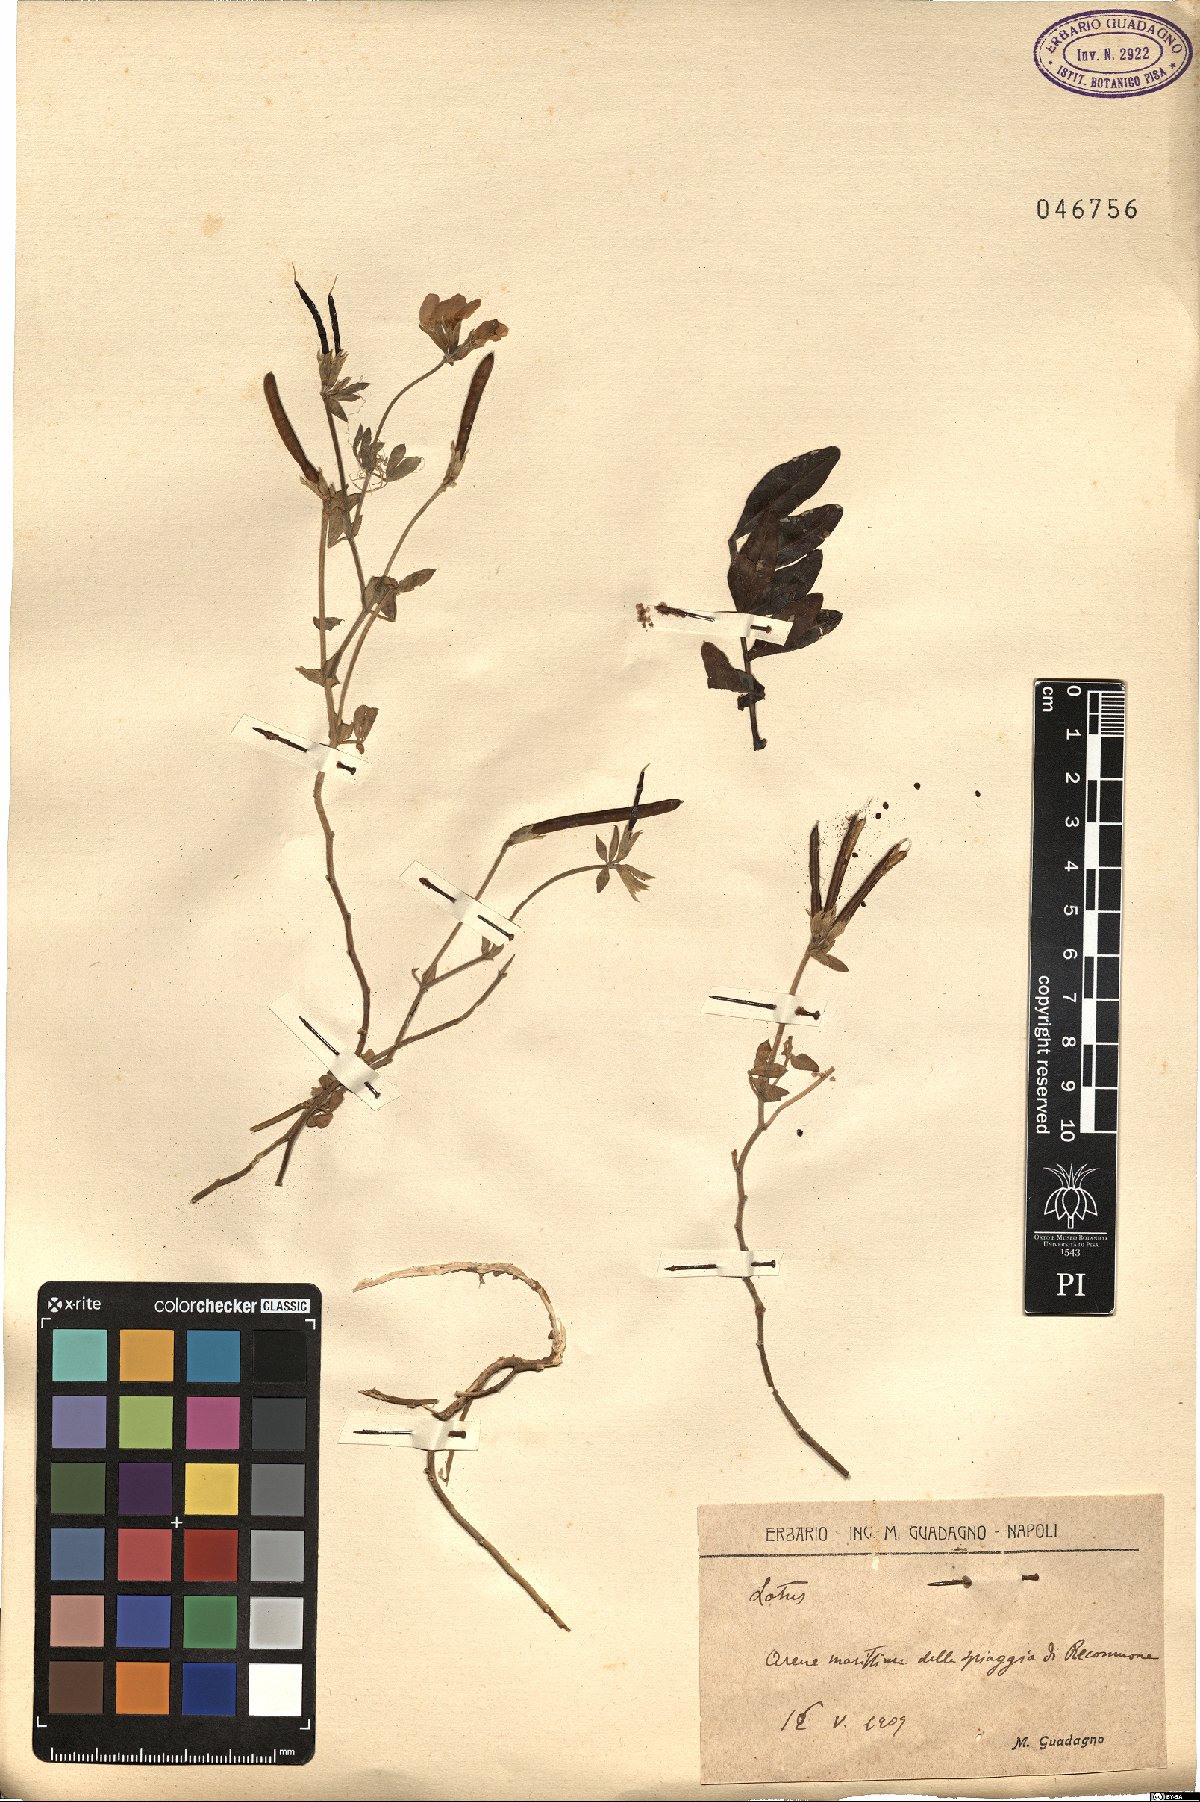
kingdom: Plantae
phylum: Tracheophyta
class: Magnoliopsida
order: Fabales
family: Fabaceae
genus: Lotus
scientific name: Lotus
